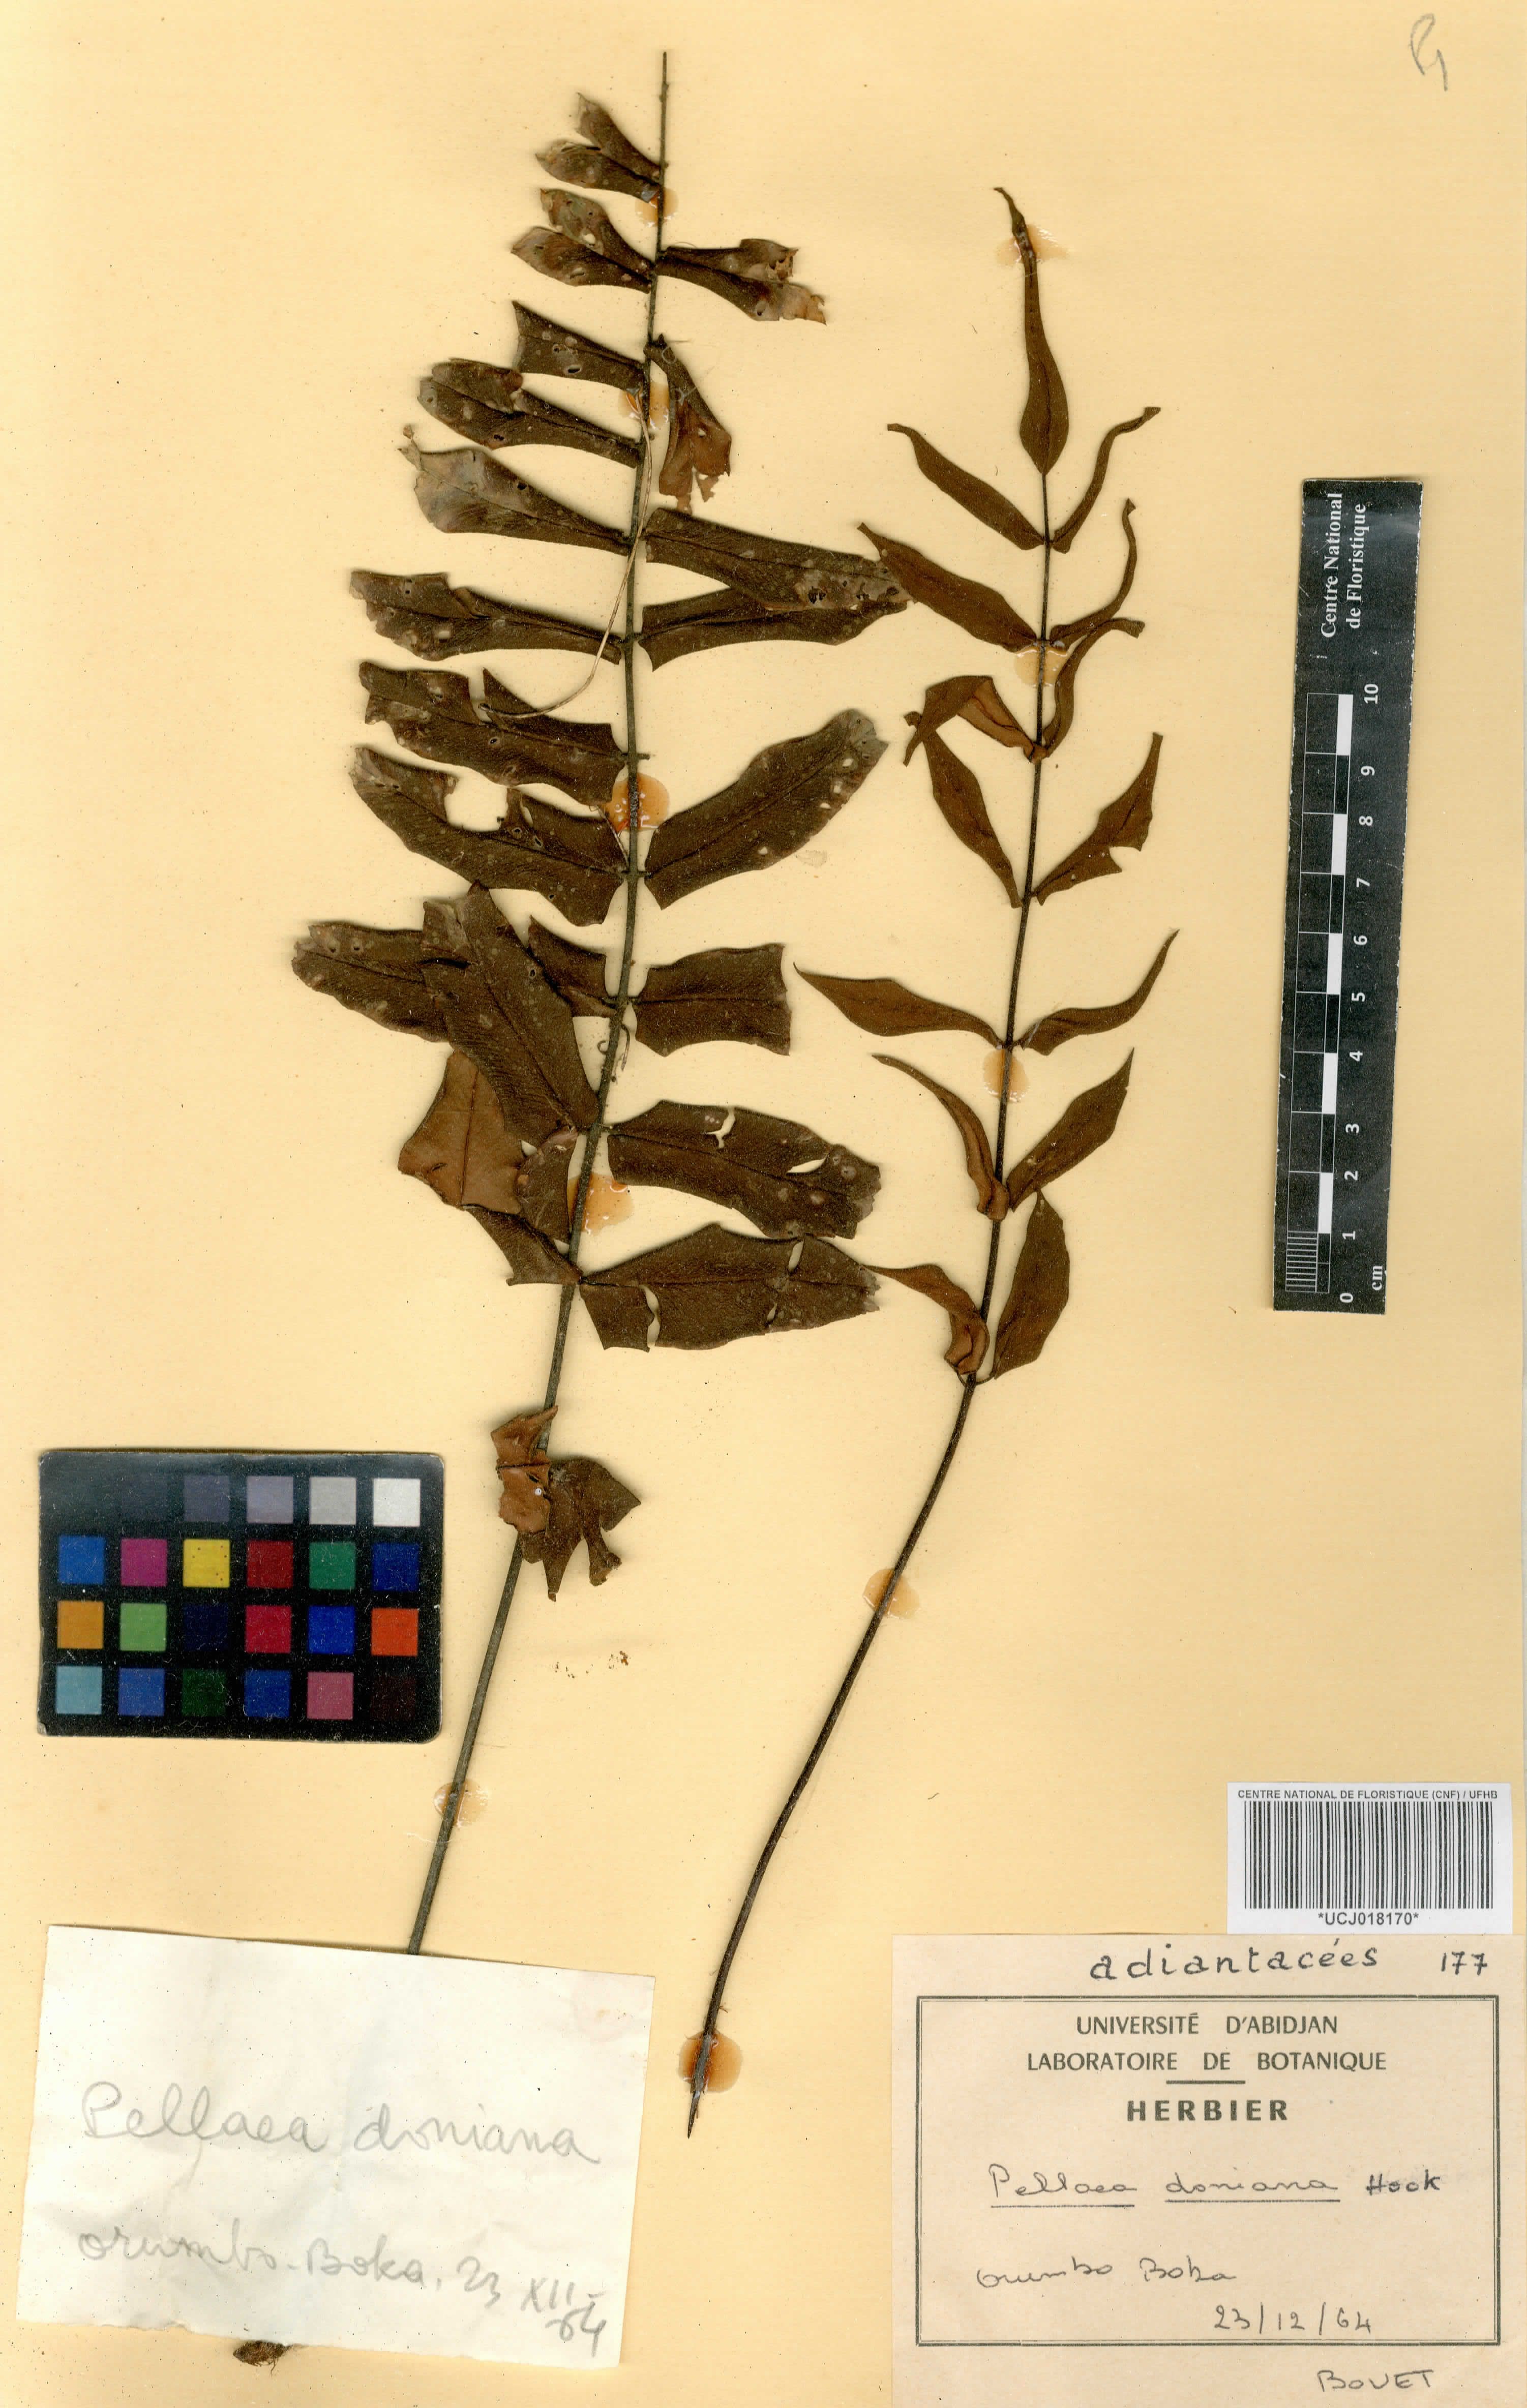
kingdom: Plantae
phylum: Tracheophyta
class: Polypodiopsida
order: Polypodiales
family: Pteridaceae
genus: Pellaea
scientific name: Pellaea doniana
